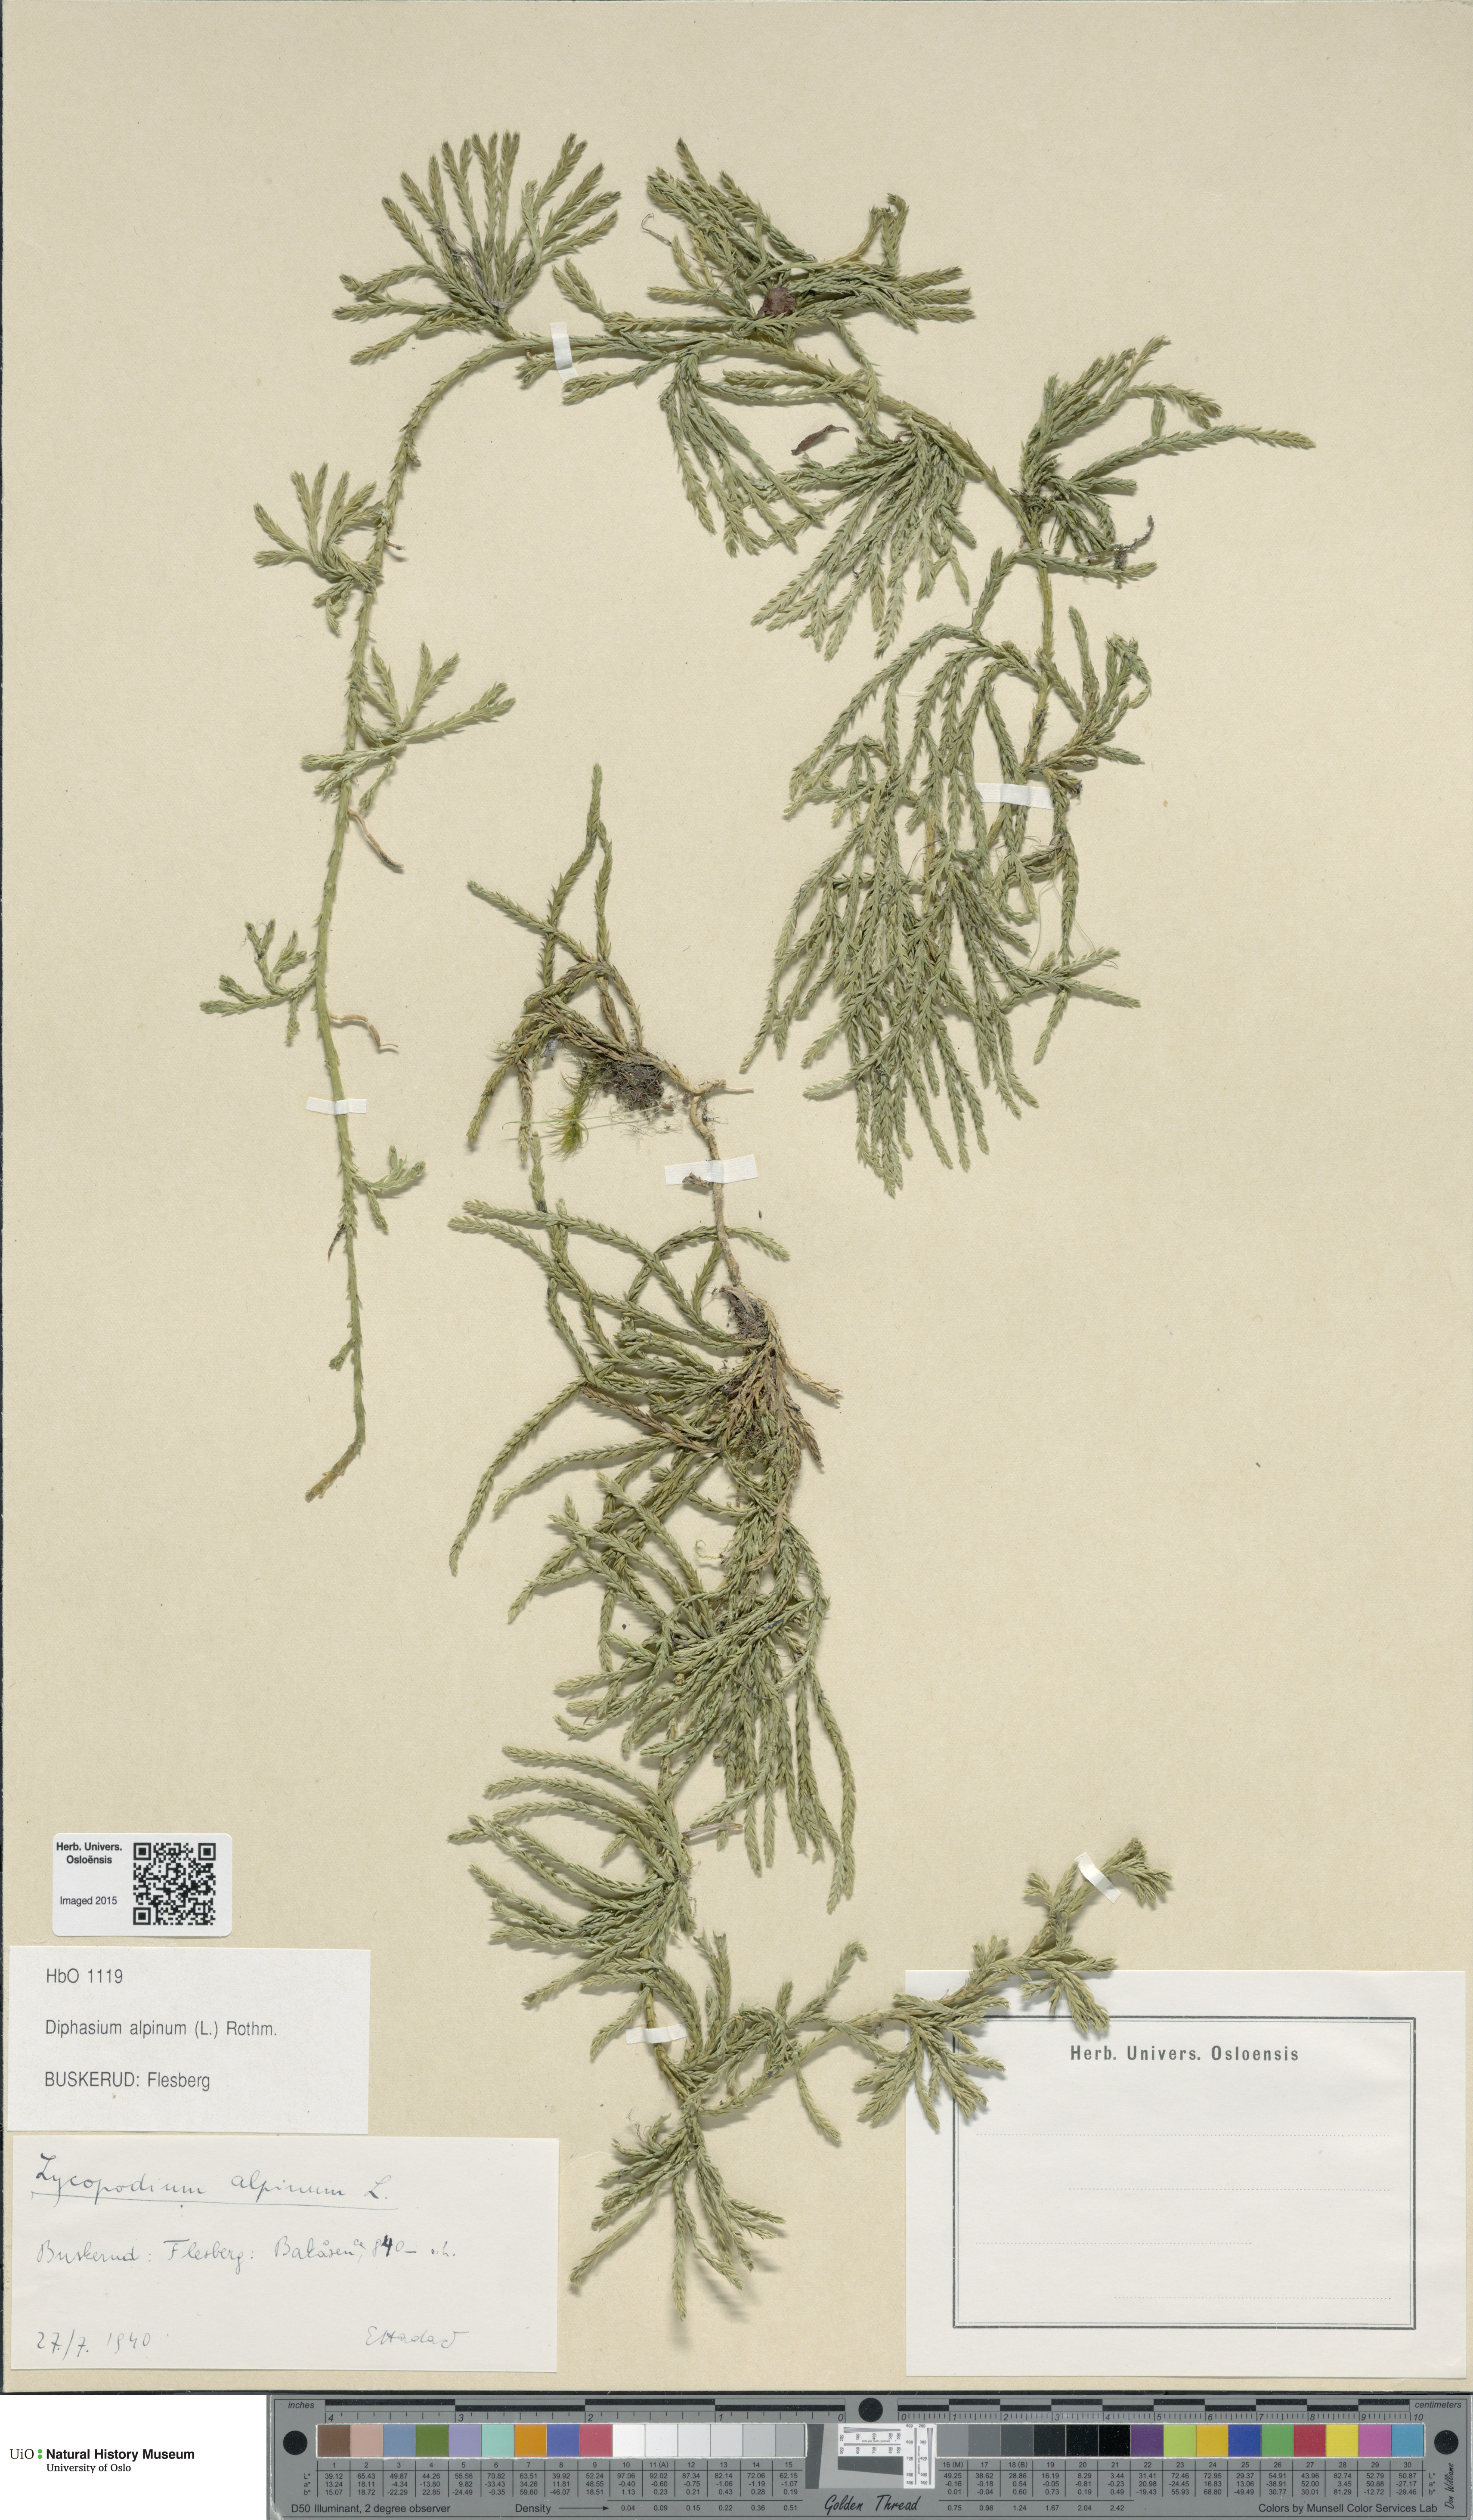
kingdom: Plantae
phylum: Tracheophyta
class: Lycopodiopsida
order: Lycopodiales
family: Lycopodiaceae
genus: Diphasiastrum
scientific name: Diphasiastrum alpinum
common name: Alpine clubmoss
